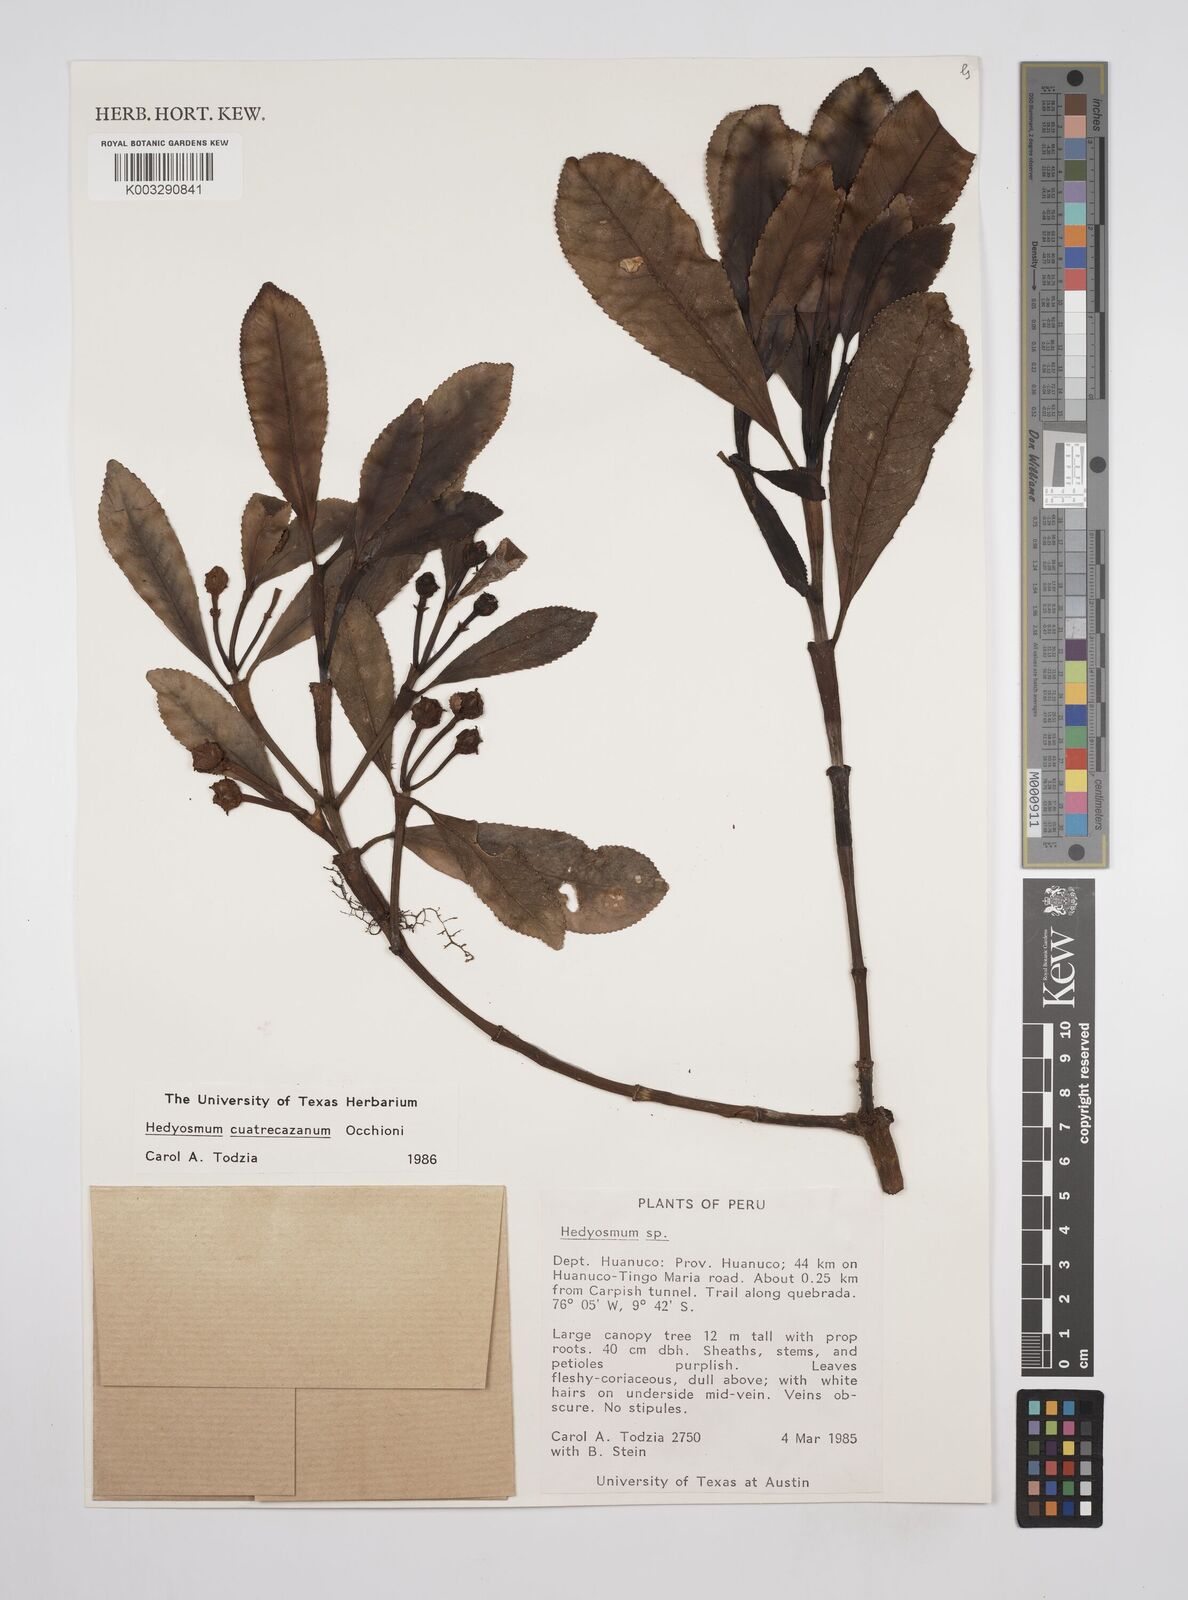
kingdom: Plantae
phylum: Tracheophyta
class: Magnoliopsida
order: Chloranthales
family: Chloranthaceae
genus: Hedyosmum
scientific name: Hedyosmum cuatrecazanum
